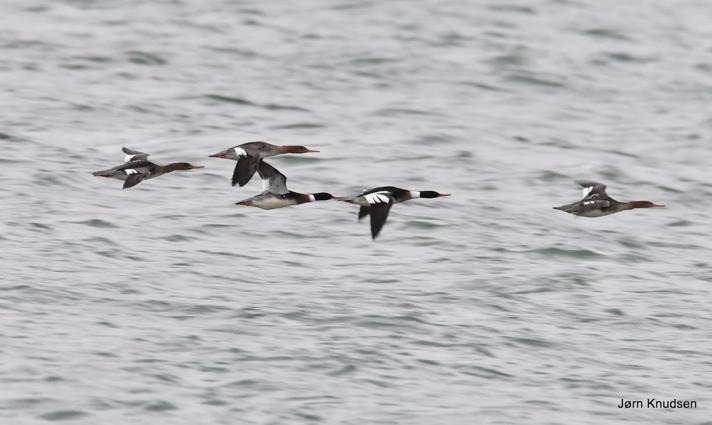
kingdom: Animalia
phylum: Chordata
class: Aves
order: Anseriformes
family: Anatidae
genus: Mergus
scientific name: Mergus serrator
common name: Toppet skallesluger
